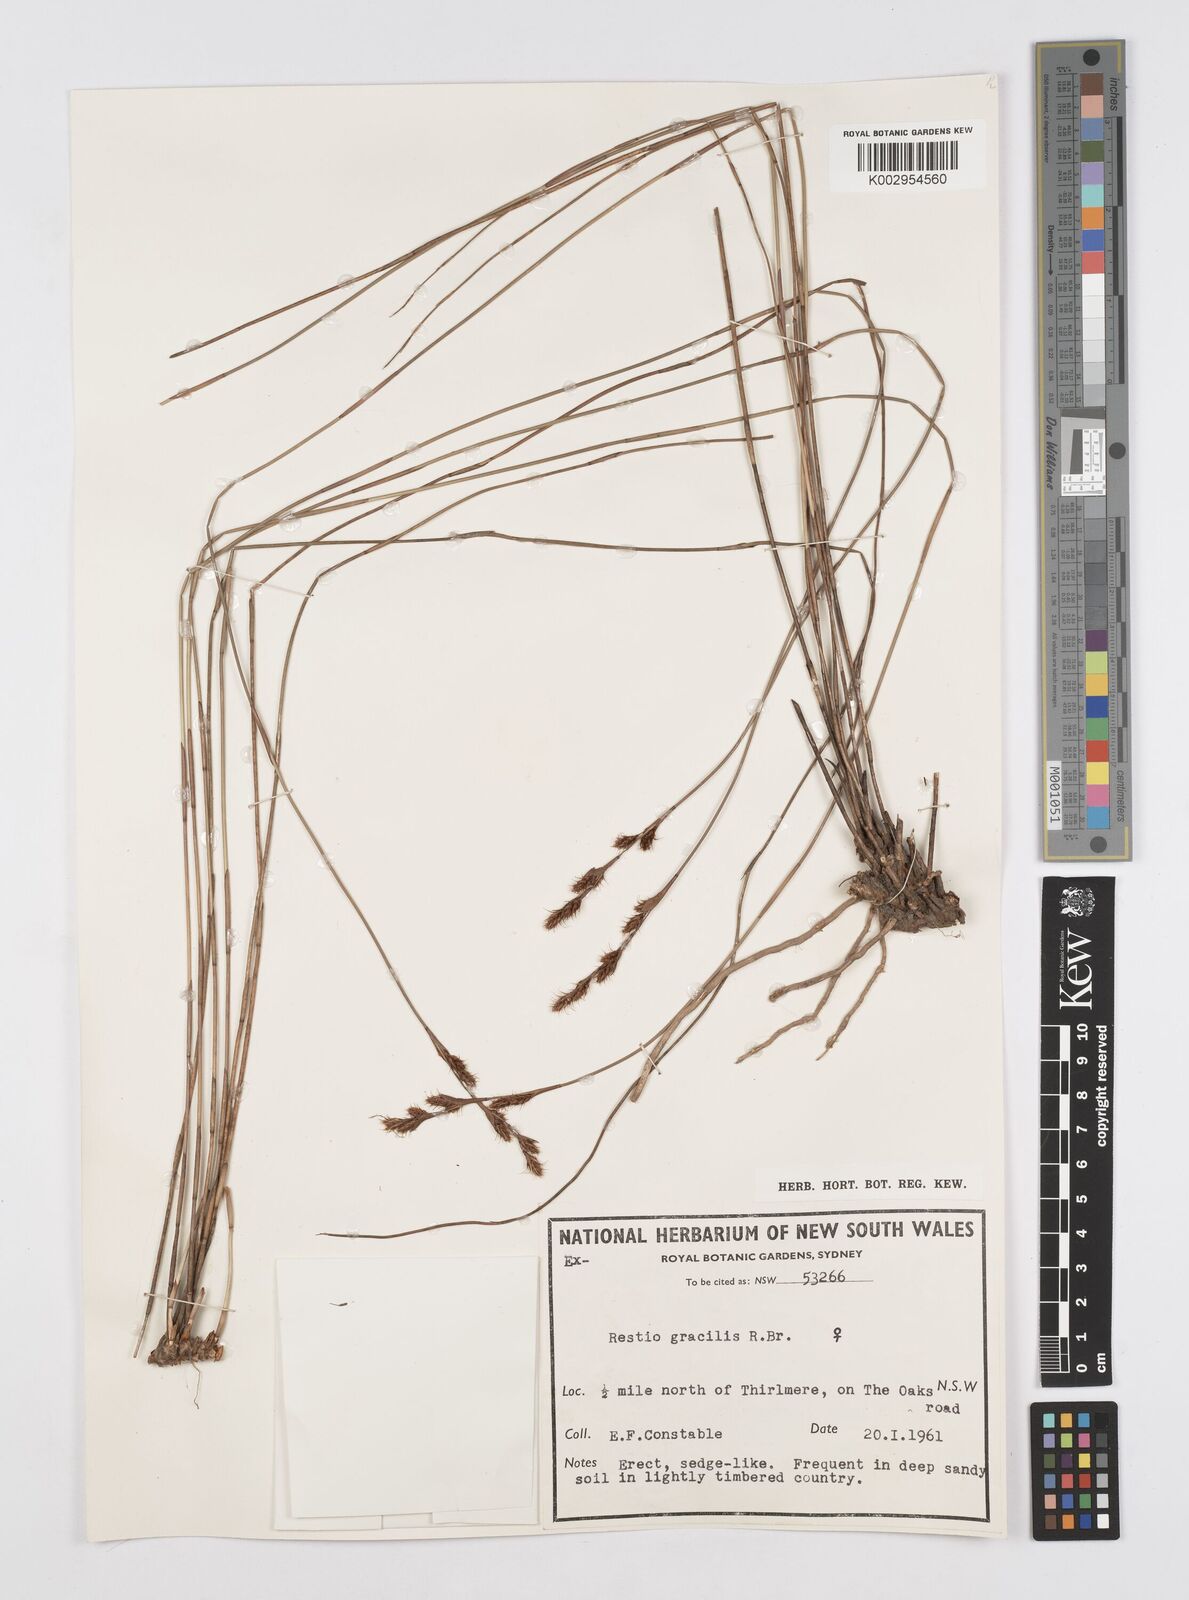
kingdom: Plantae
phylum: Tracheophyta
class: Liliopsida
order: Poales
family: Restionaceae
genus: Baloskion
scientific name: Baloskion gracile
